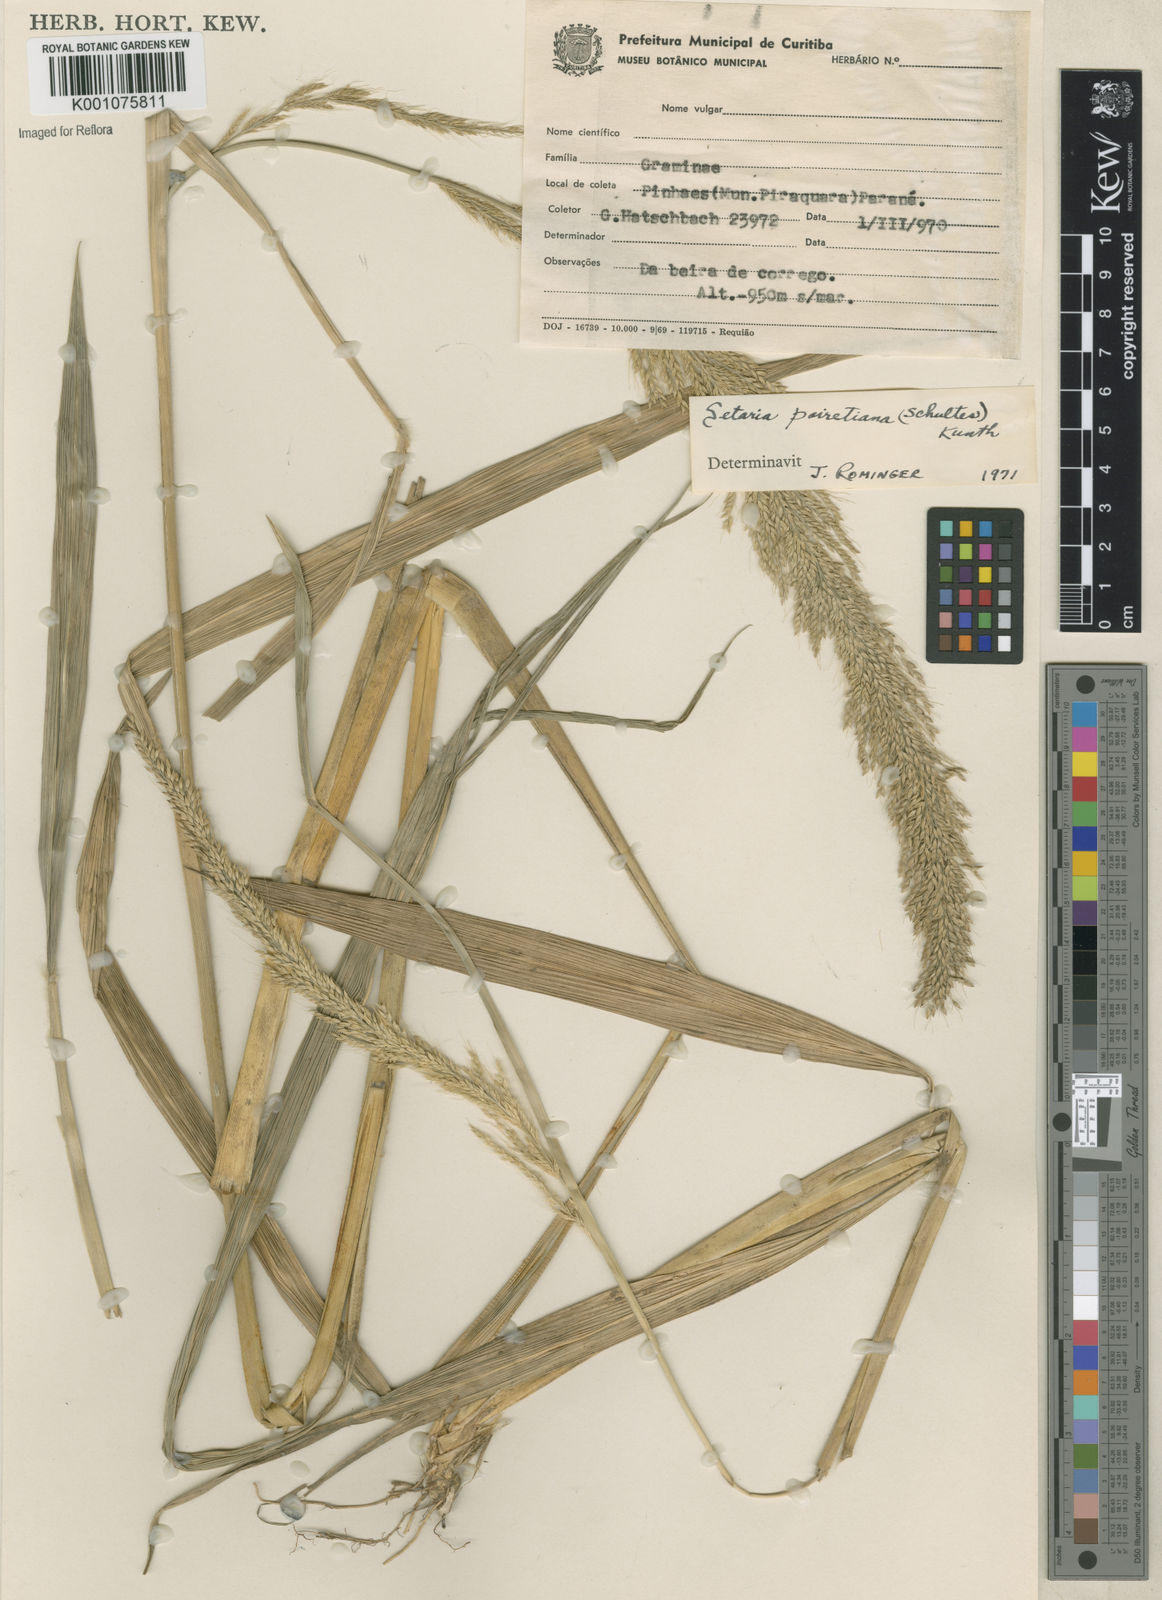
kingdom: Plantae
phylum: Tracheophyta
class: Liliopsida
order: Poales
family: Poaceae
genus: Setaria
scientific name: Setaria megaphylla
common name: Bigleaf bristlegrass
